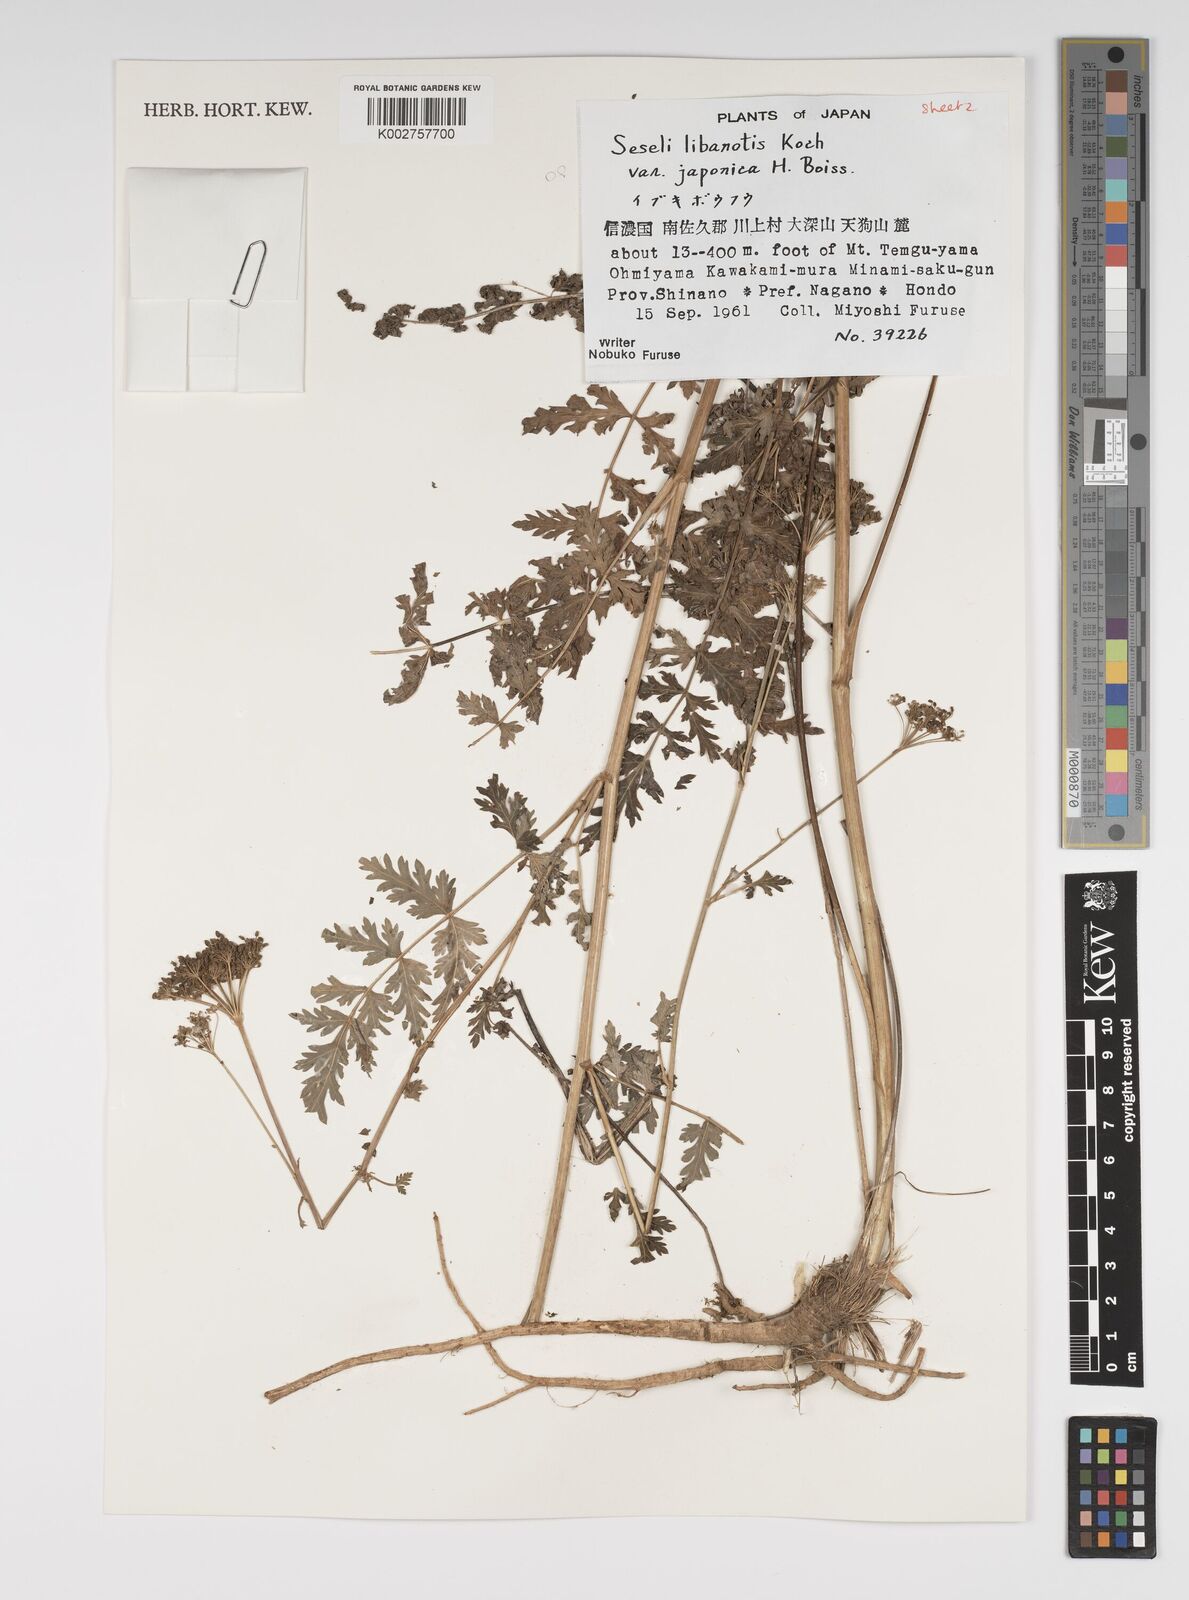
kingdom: Plantae
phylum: Tracheophyta
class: Magnoliopsida
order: Apiales
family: Apiaceae
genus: Seseli
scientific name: Seseli libanotis
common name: Mooncarrot
